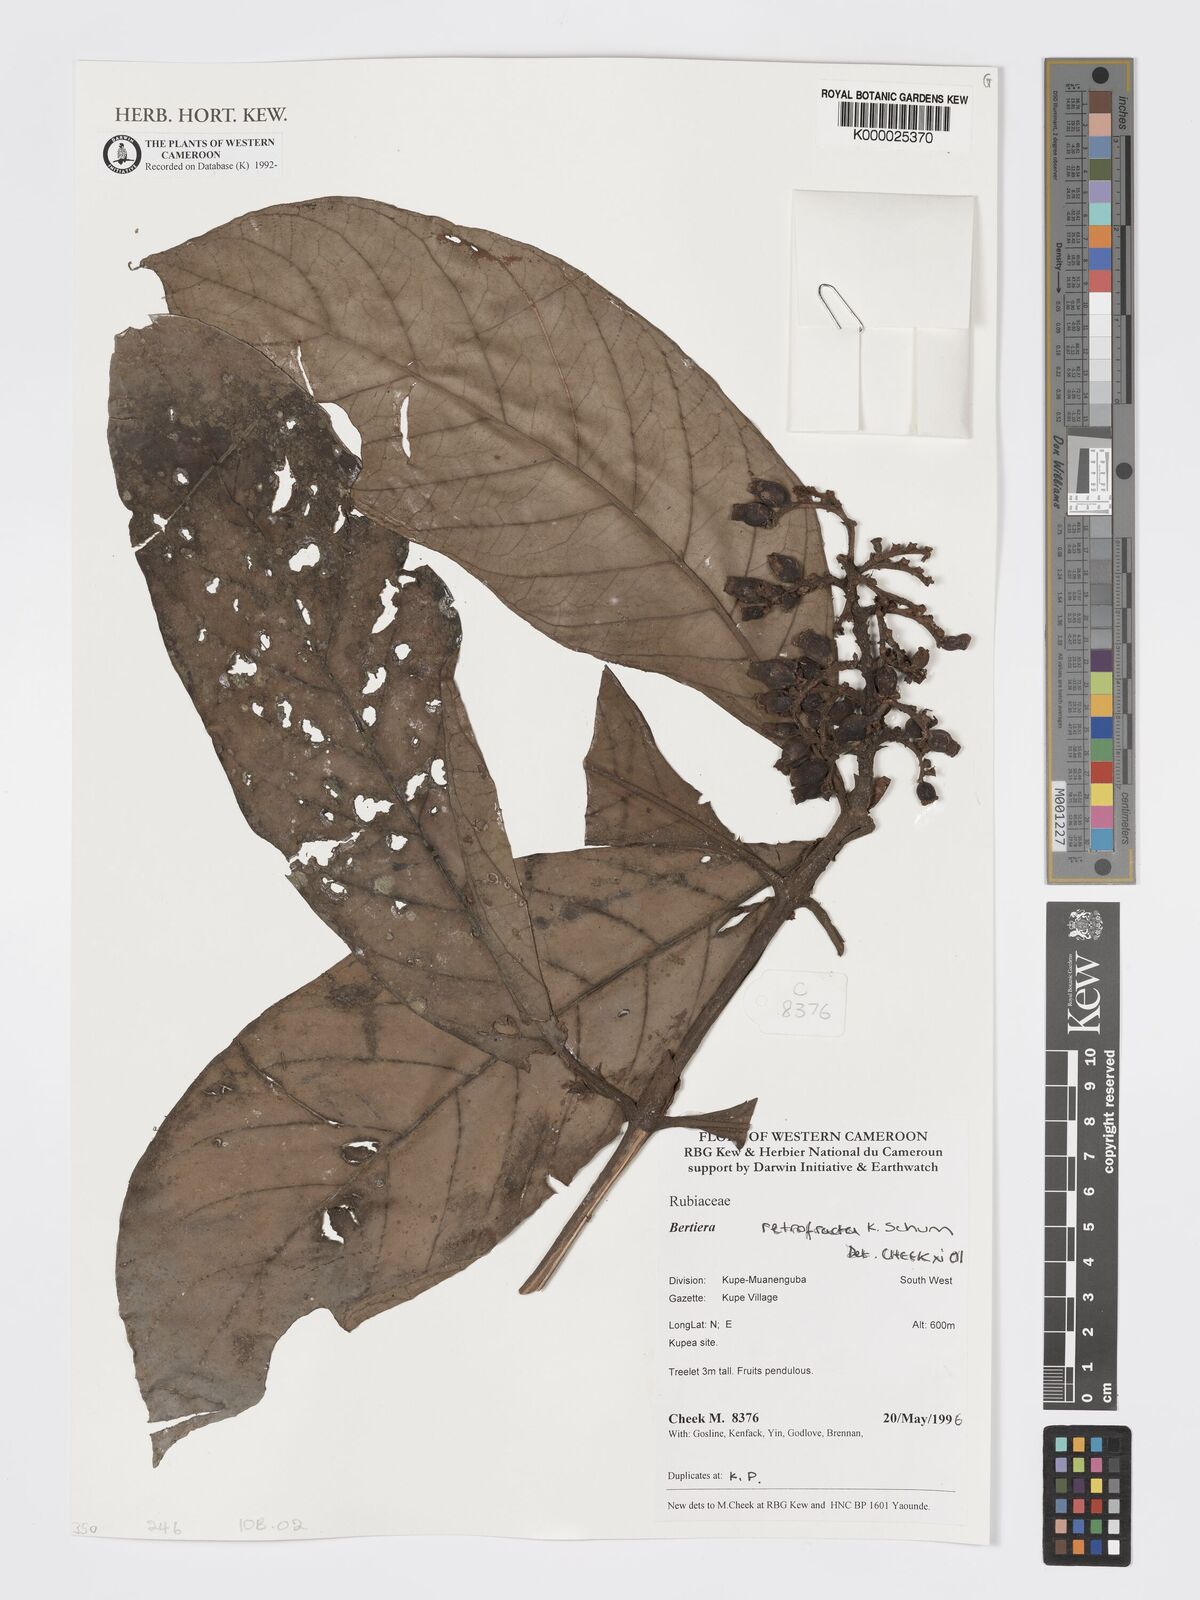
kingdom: Plantae
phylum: Tracheophyta
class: Magnoliopsida
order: Gentianales
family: Rubiaceae
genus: Bertiera
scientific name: Bertiera retrofracta
